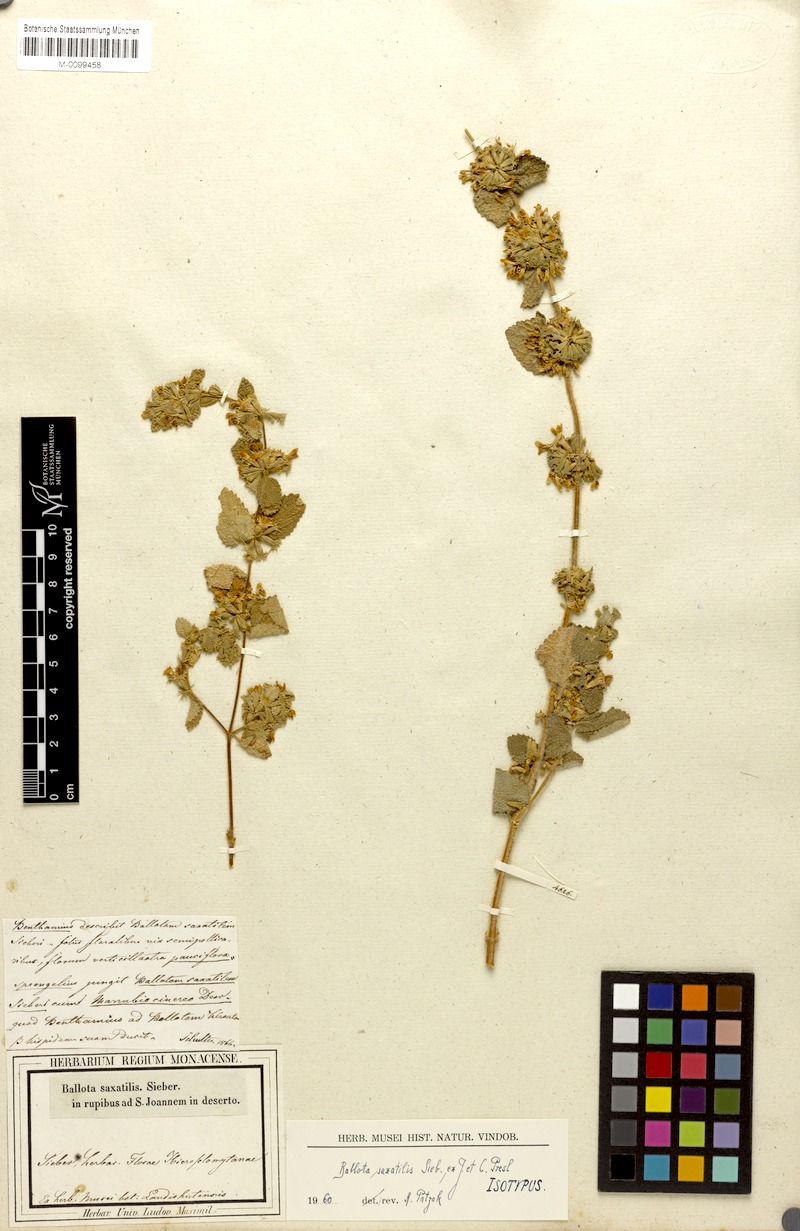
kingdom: Plantae
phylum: Tracheophyta
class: Magnoliopsida
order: Lamiales
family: Lamiaceae
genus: Ballota
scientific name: Ballota saxatilis
